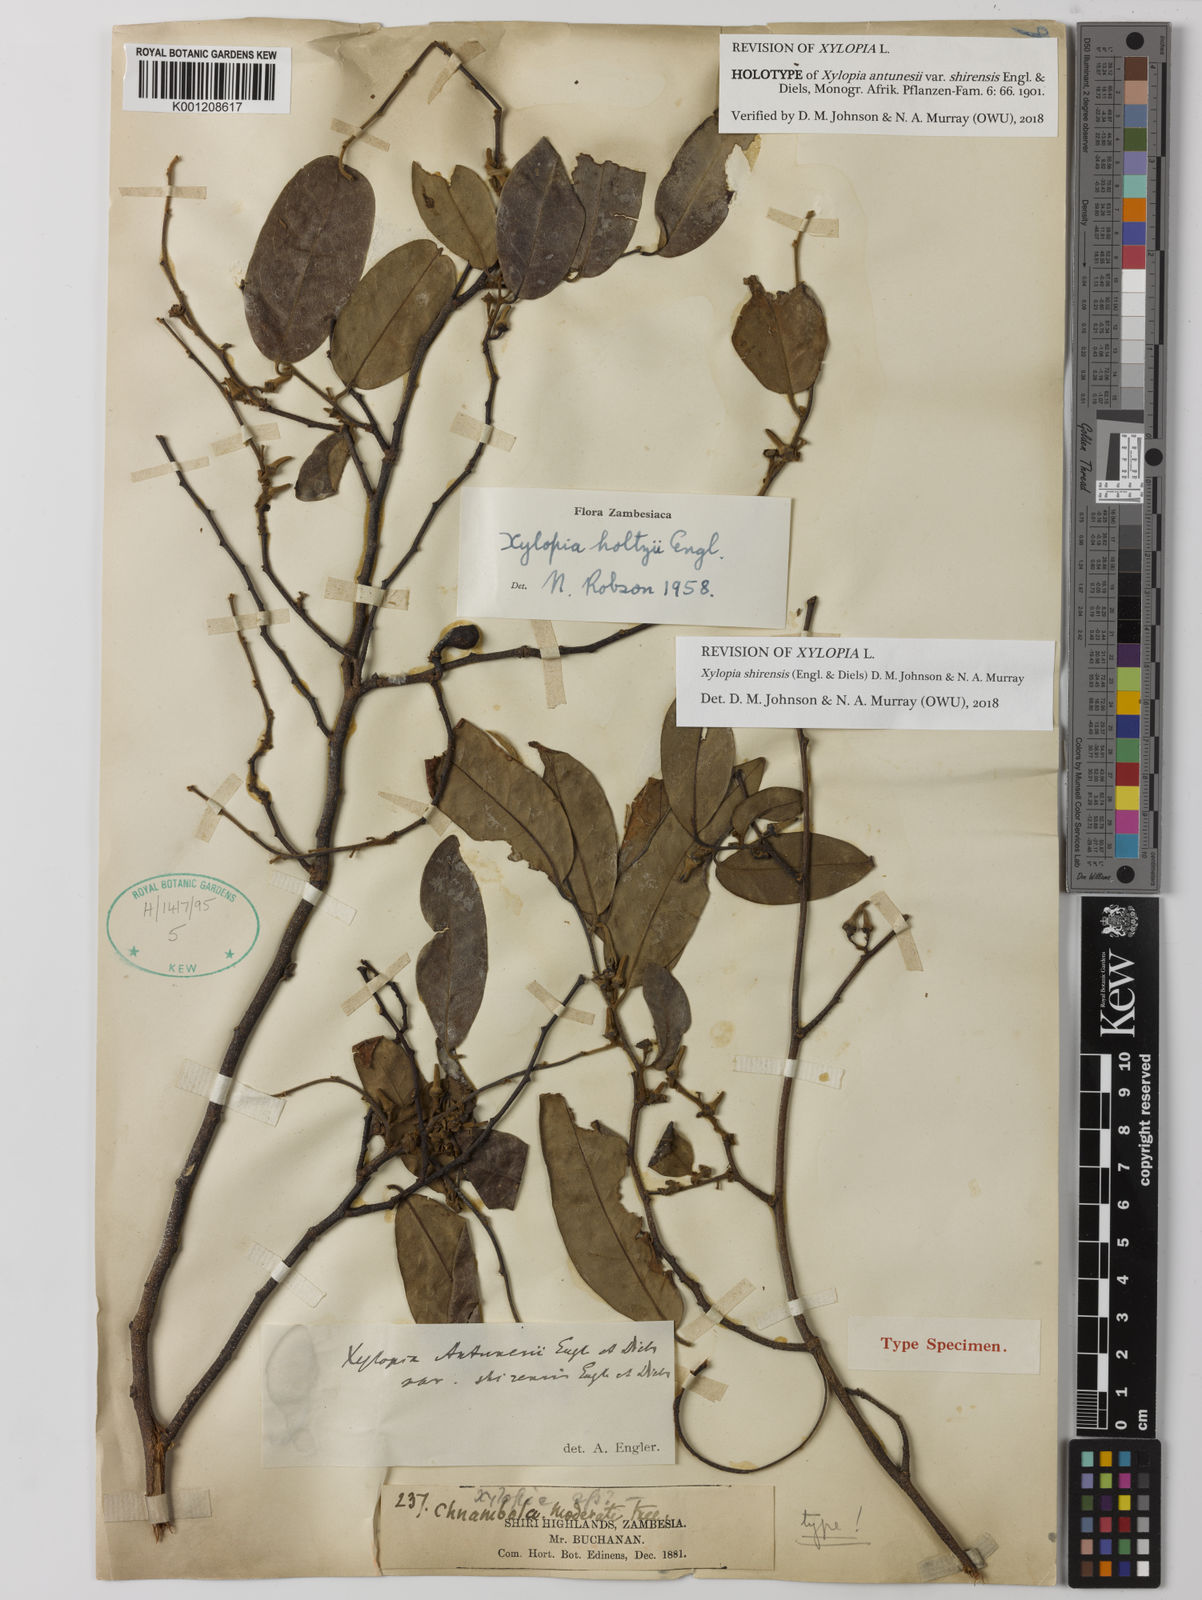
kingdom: Plantae
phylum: Tracheophyta
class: Magnoliopsida
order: Magnoliales
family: Annonaceae
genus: Xylopia
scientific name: Xylopia
